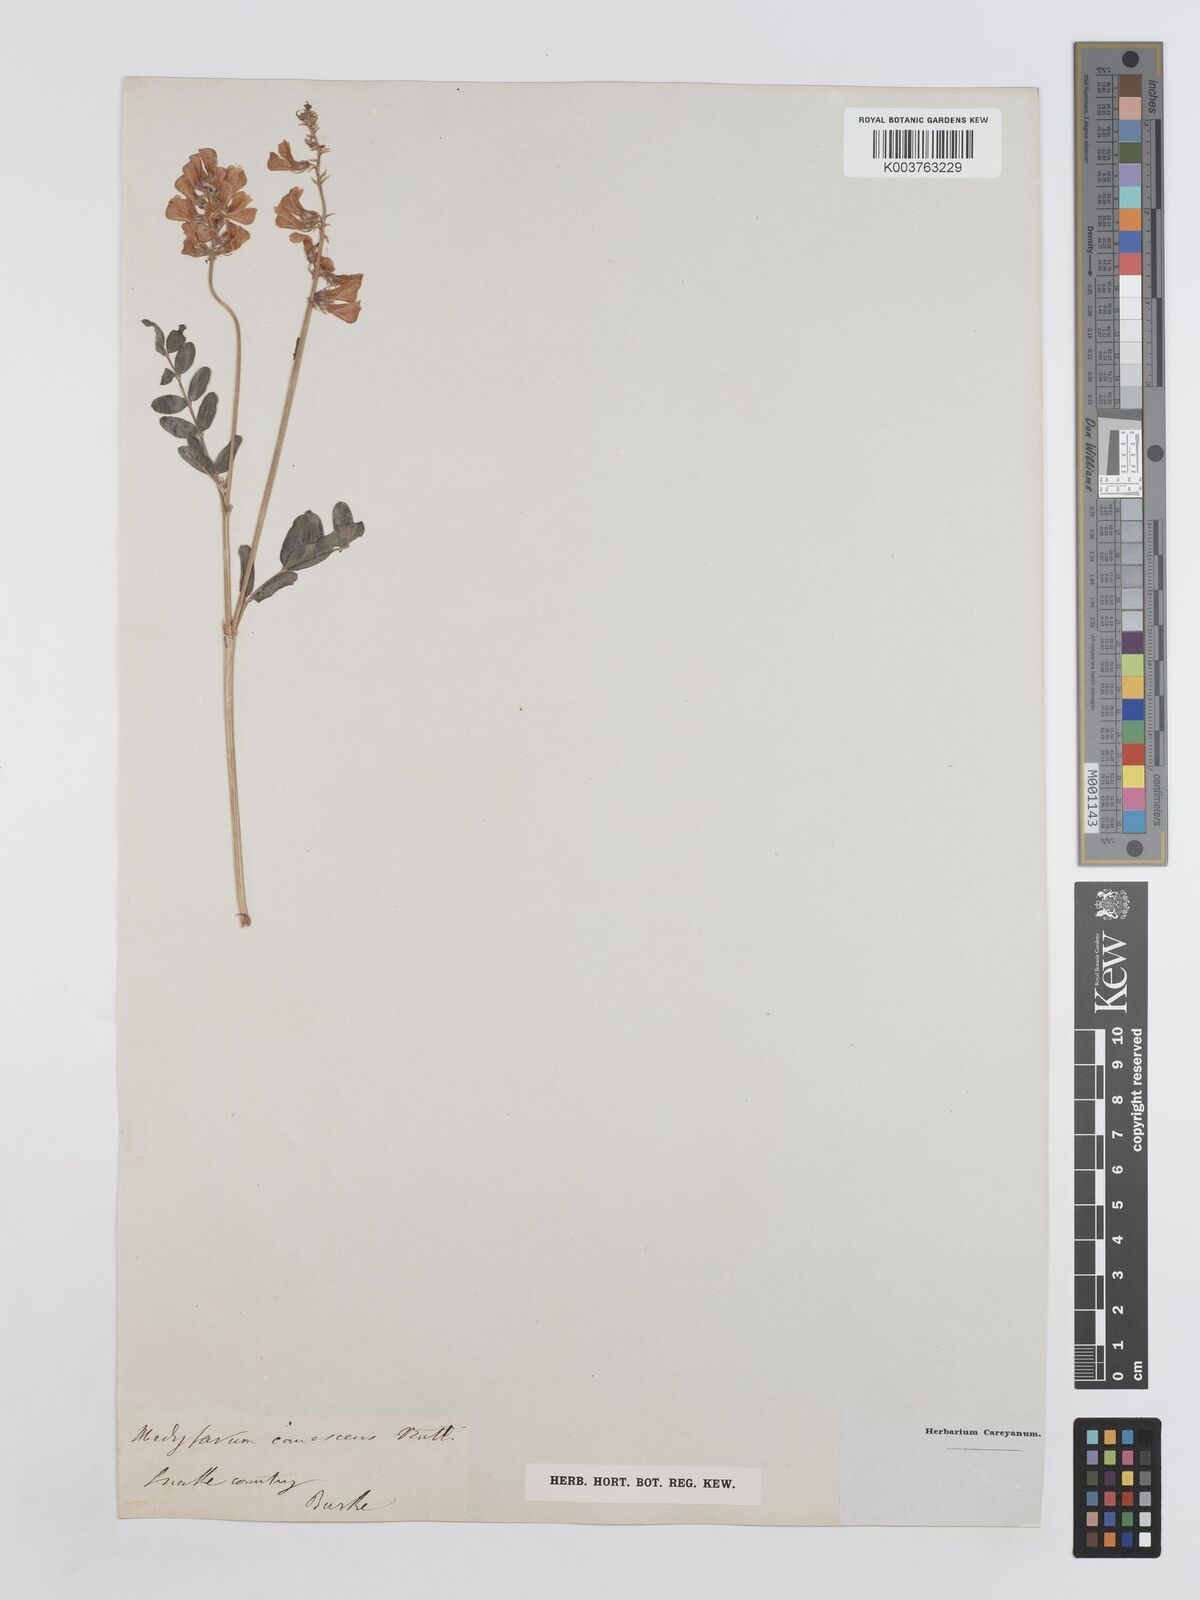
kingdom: Plantae
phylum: Tracheophyta
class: Magnoliopsida
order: Fabales
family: Fabaceae
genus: Hedysarum
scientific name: Hedysarum boreale
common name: Northern sweet-vetch
